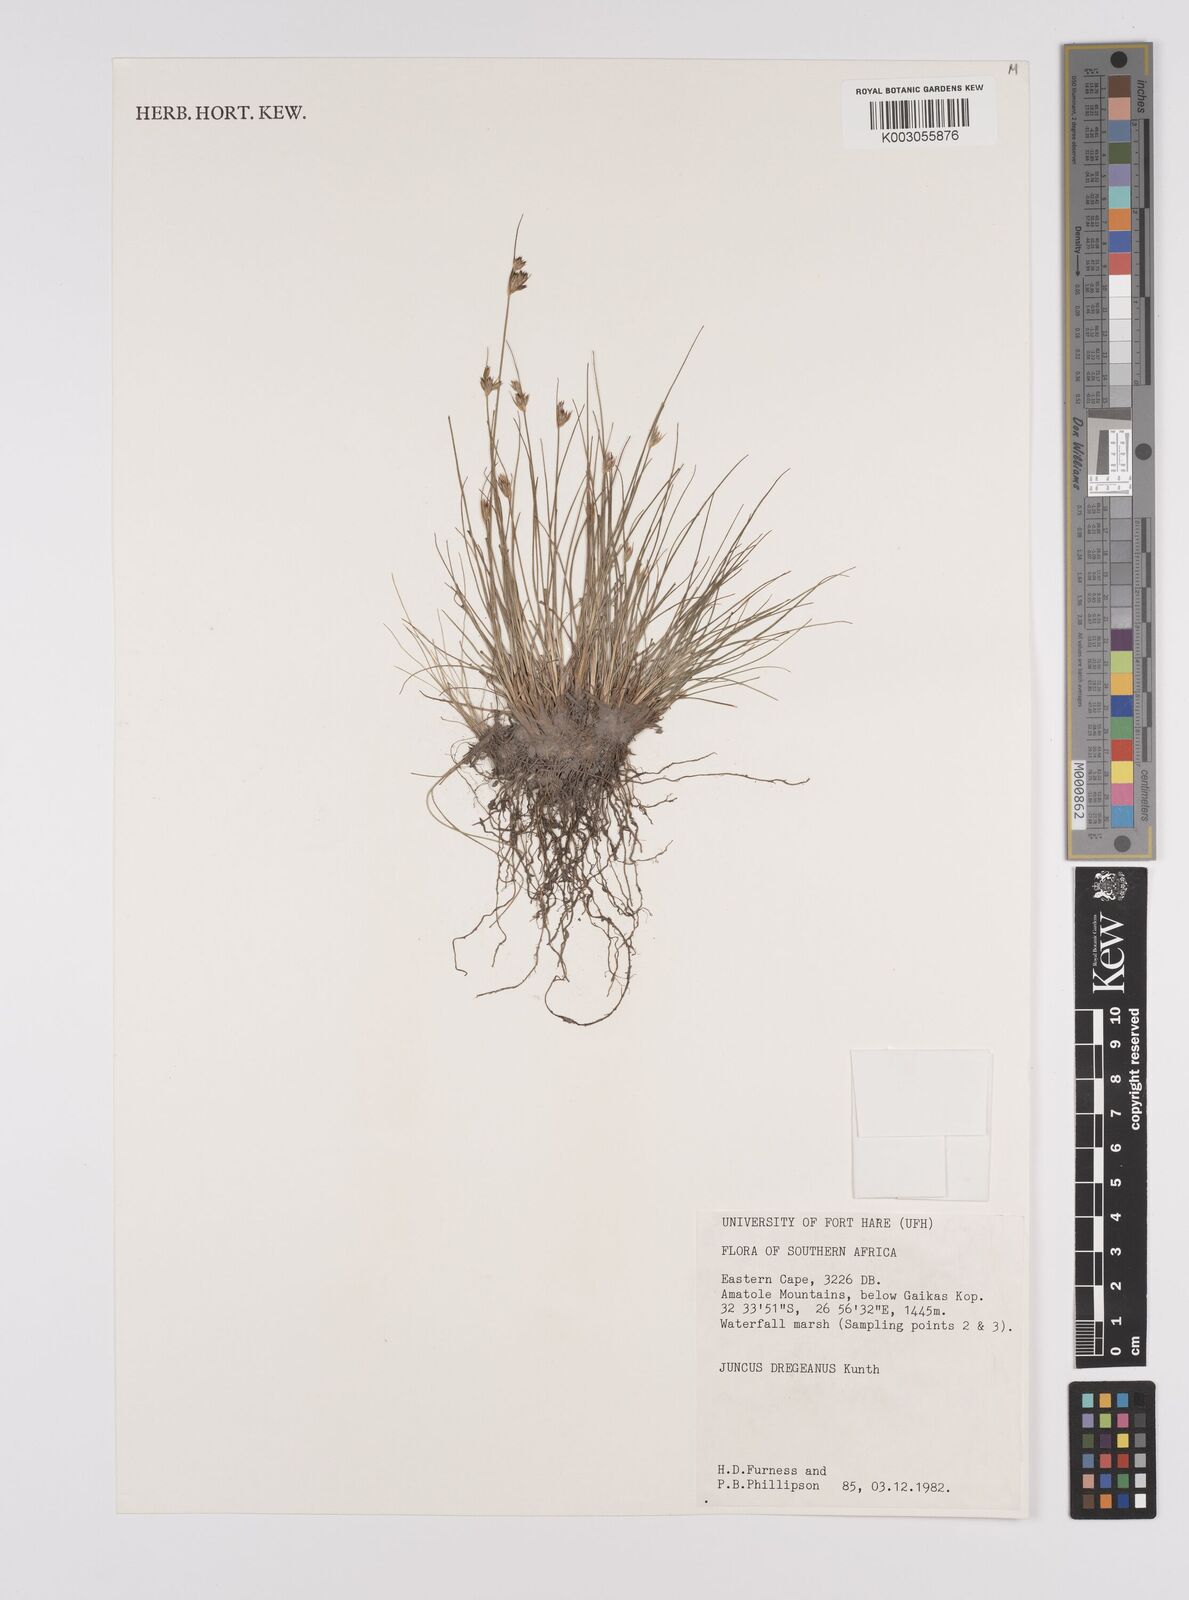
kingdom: Plantae
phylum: Tracheophyta
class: Liliopsida
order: Poales
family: Juncaceae
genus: Juncus
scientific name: Juncus dregeanus
